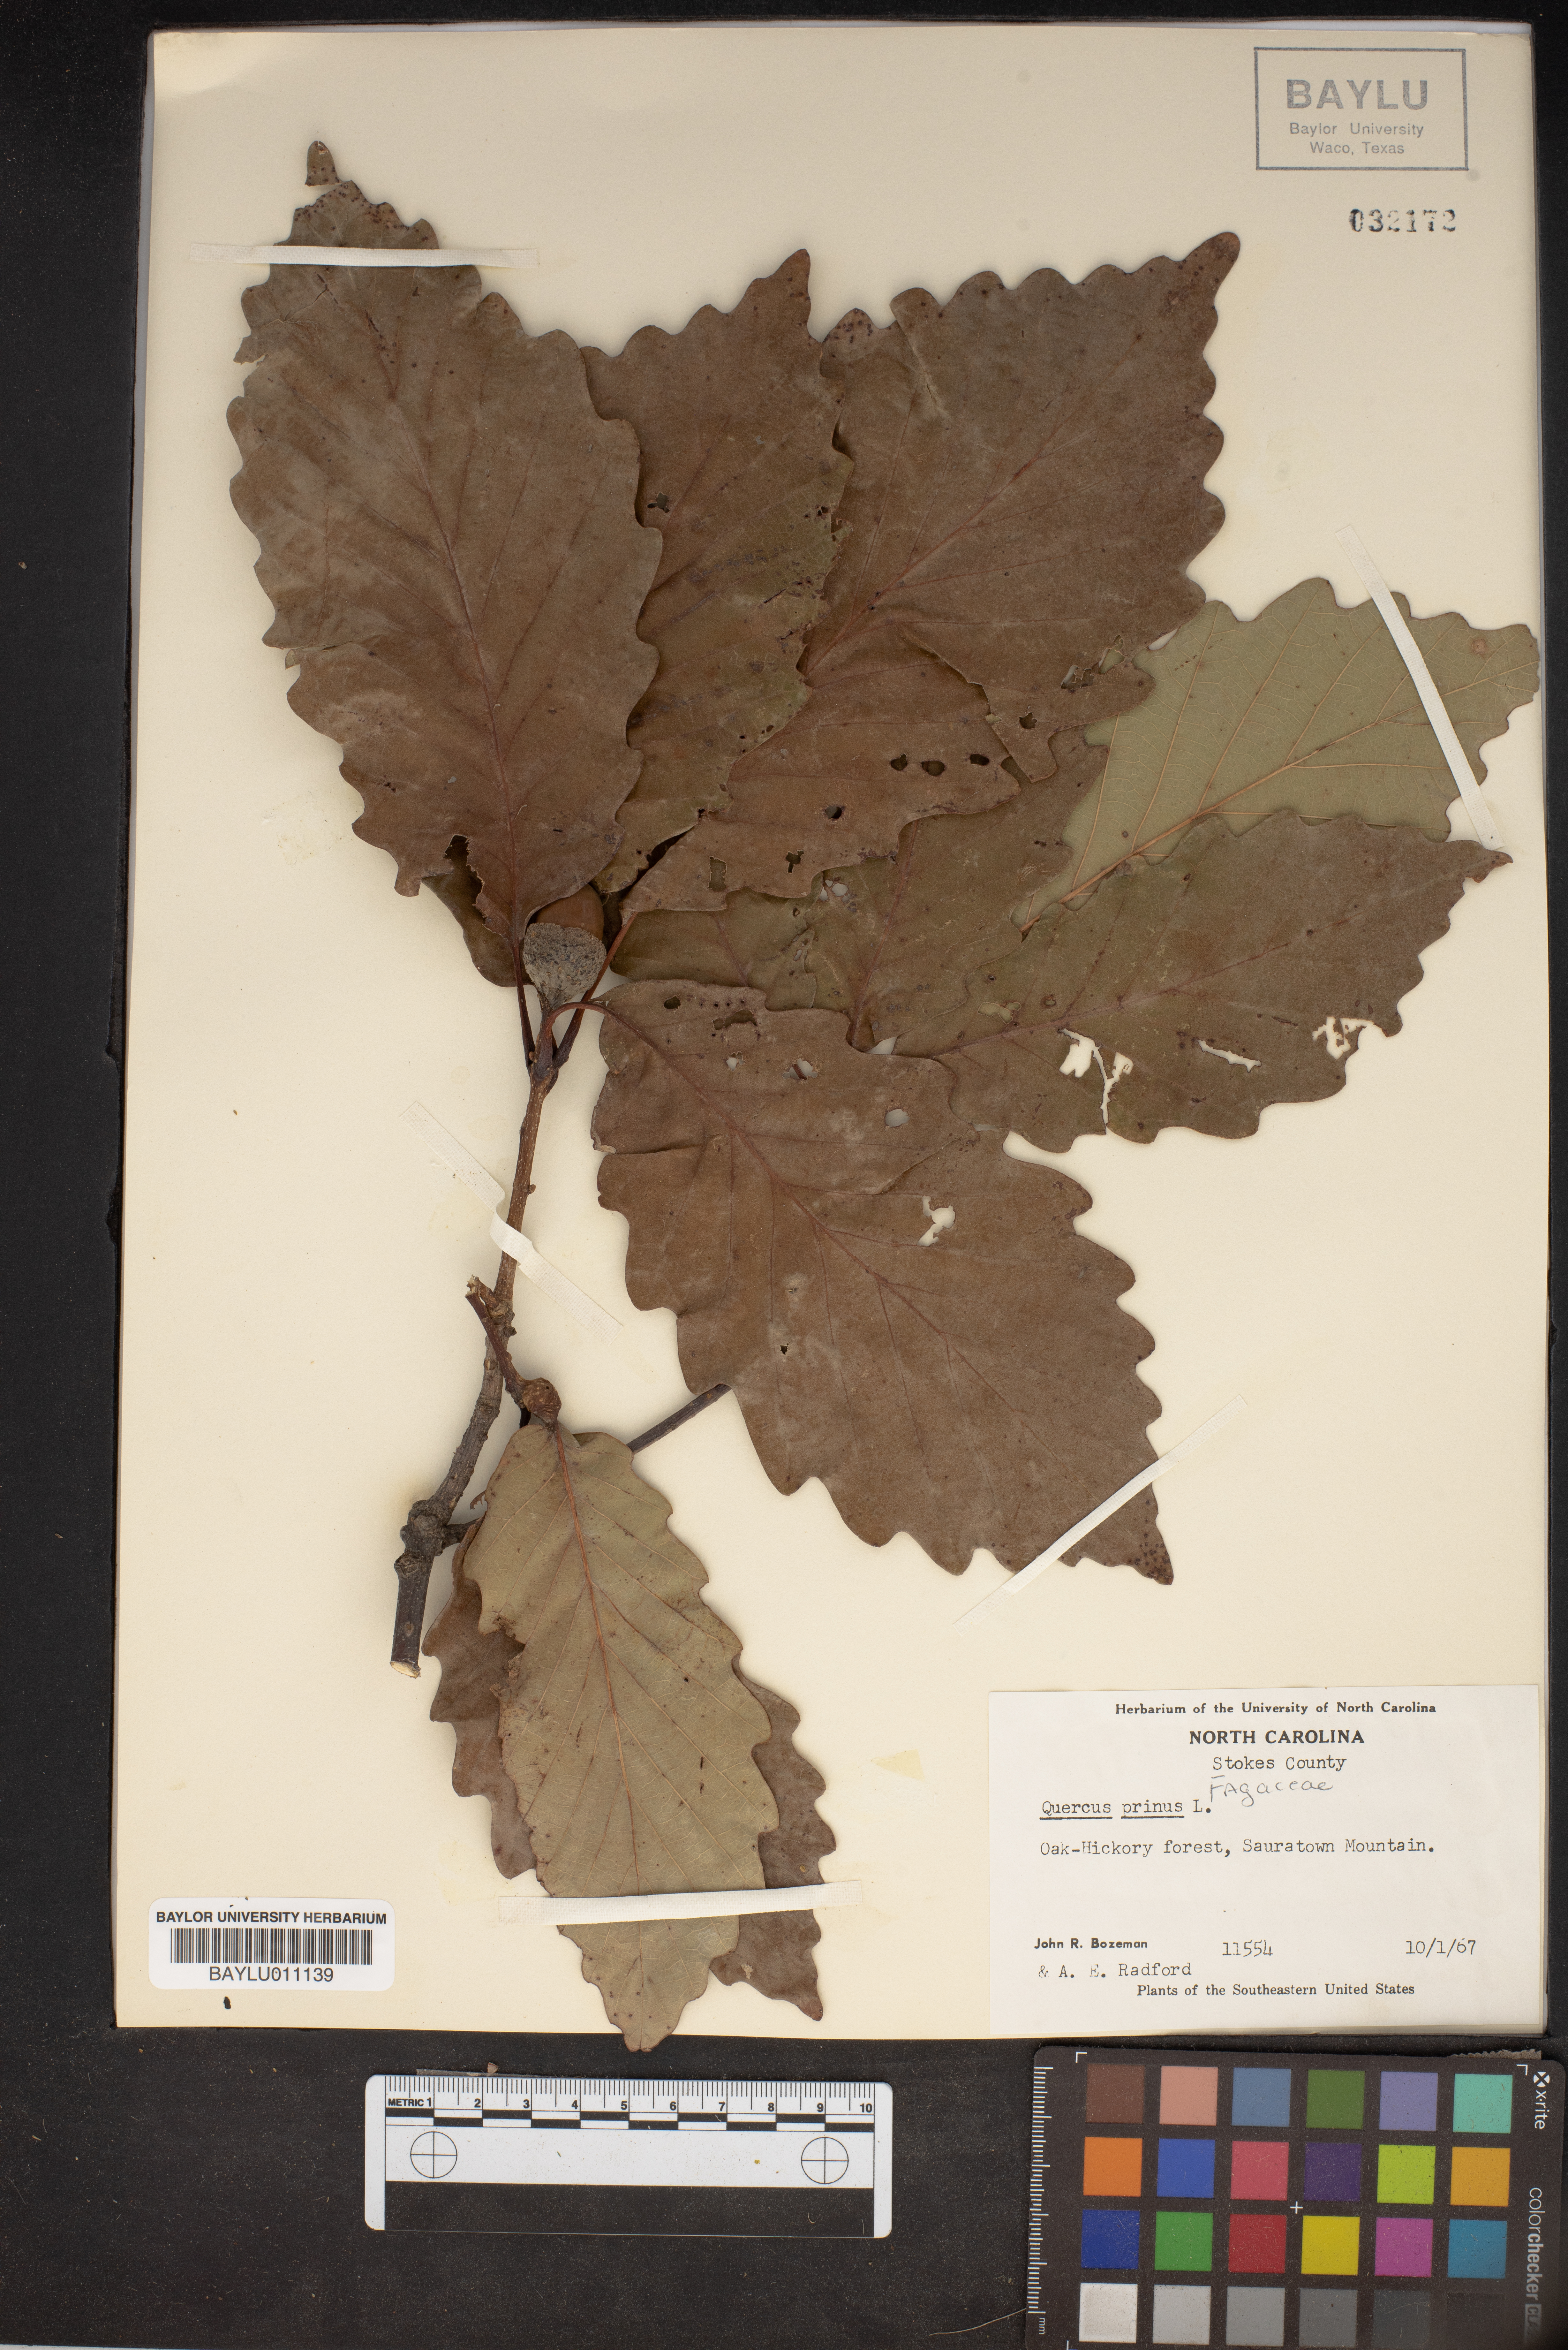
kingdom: Plantae
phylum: Tracheophyta
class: Magnoliopsida
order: Fagales
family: Fagaceae
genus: Quercus
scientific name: Quercus michauxii
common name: Swamp chestnut oak
